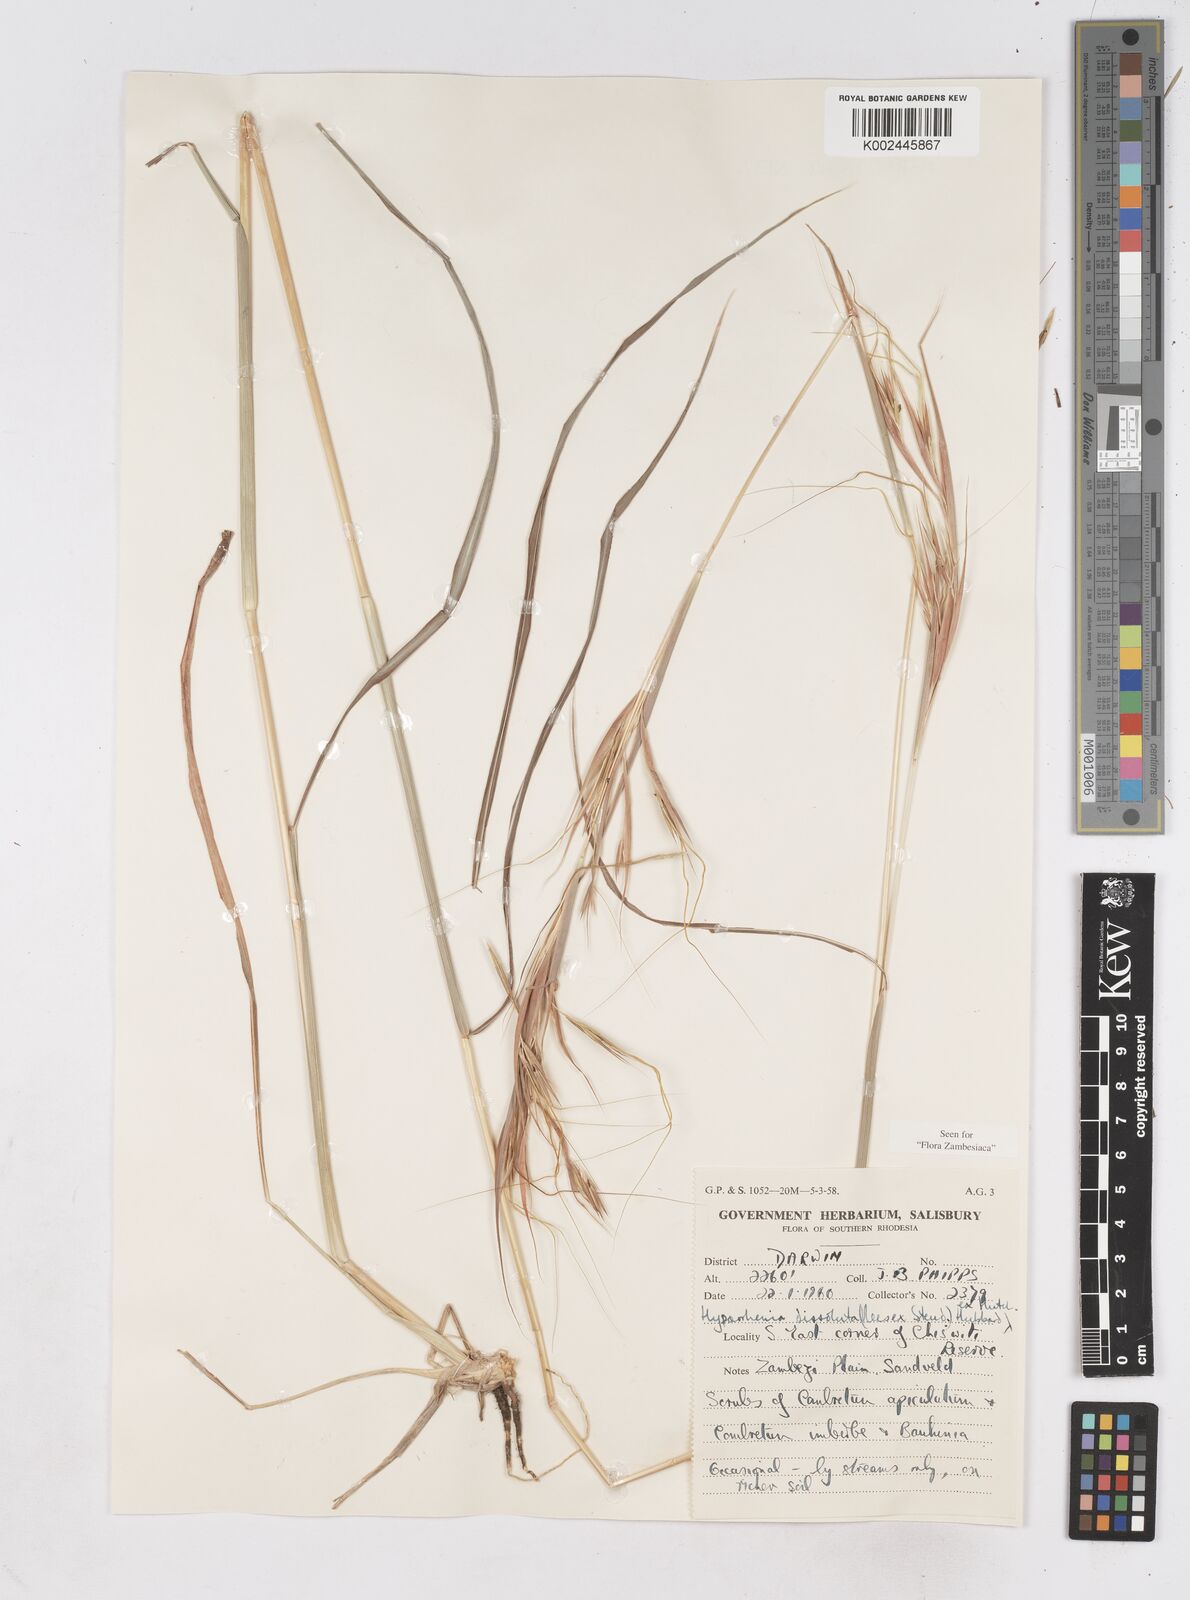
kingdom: Plantae
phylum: Tracheophyta
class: Liliopsida
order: Poales
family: Poaceae
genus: Hyperthelia
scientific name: Hyperthelia dissoluta
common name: Yellow thatching grass
